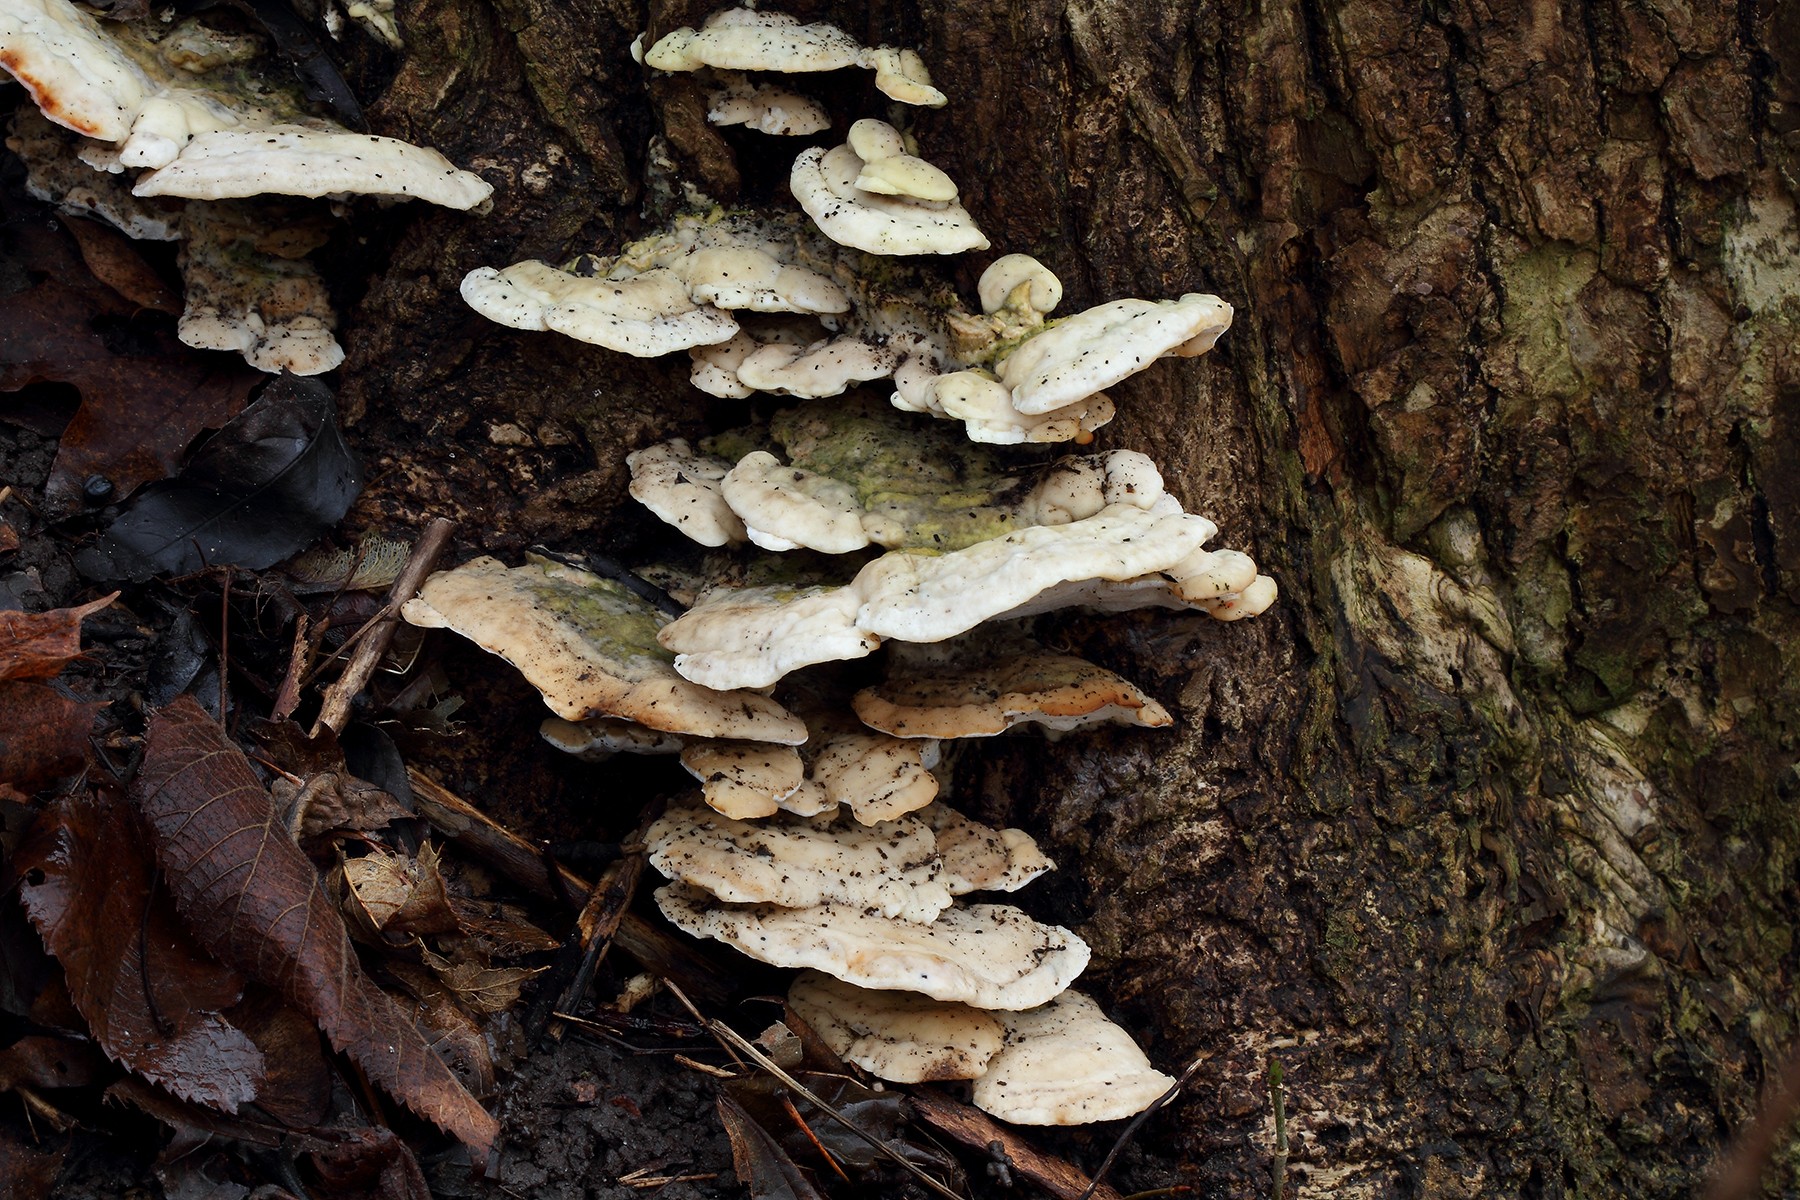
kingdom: Fungi
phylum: Basidiomycota
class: Agaricomycetes
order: Hymenochaetales
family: Oxyporaceae
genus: Oxyporus
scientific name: Oxyporus populinus
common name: sammenvokset trylleporesvamp
